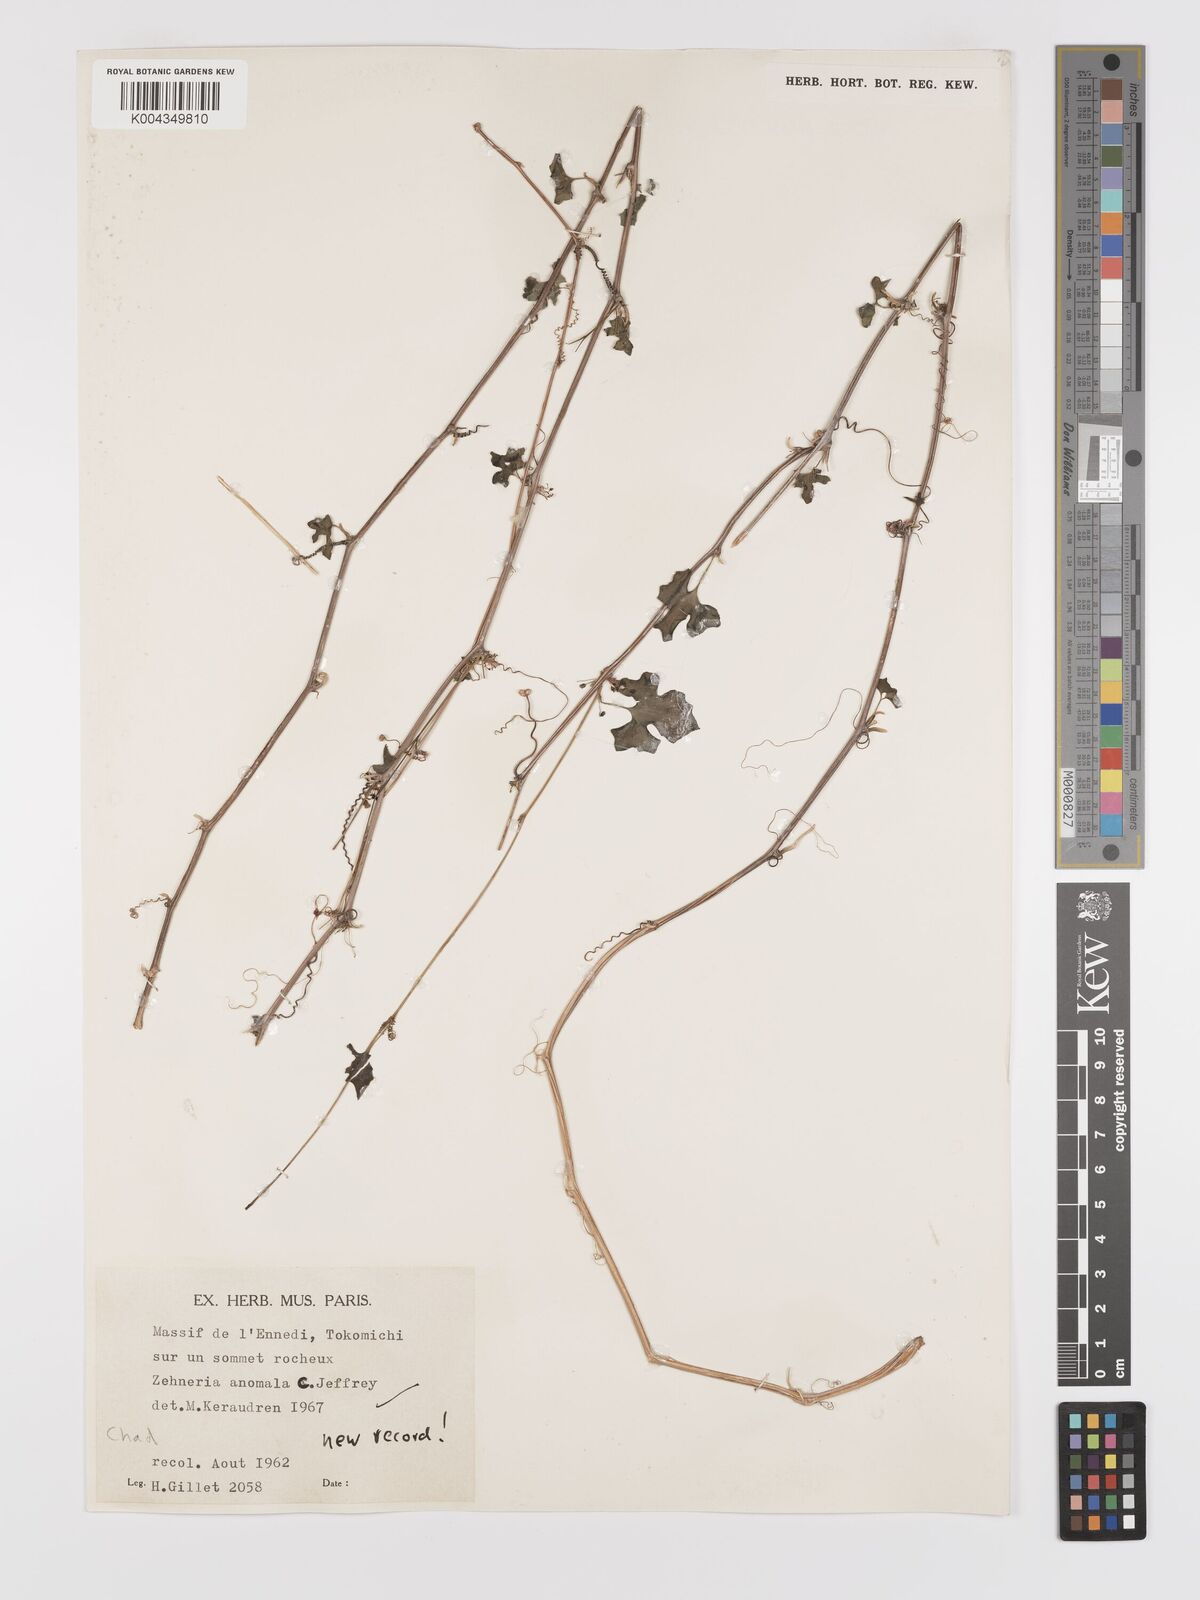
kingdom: Plantae
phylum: Tracheophyta
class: Magnoliopsida
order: Cucurbitales
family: Cucurbitaceae
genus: Zehneria
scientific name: Zehneria anomala
